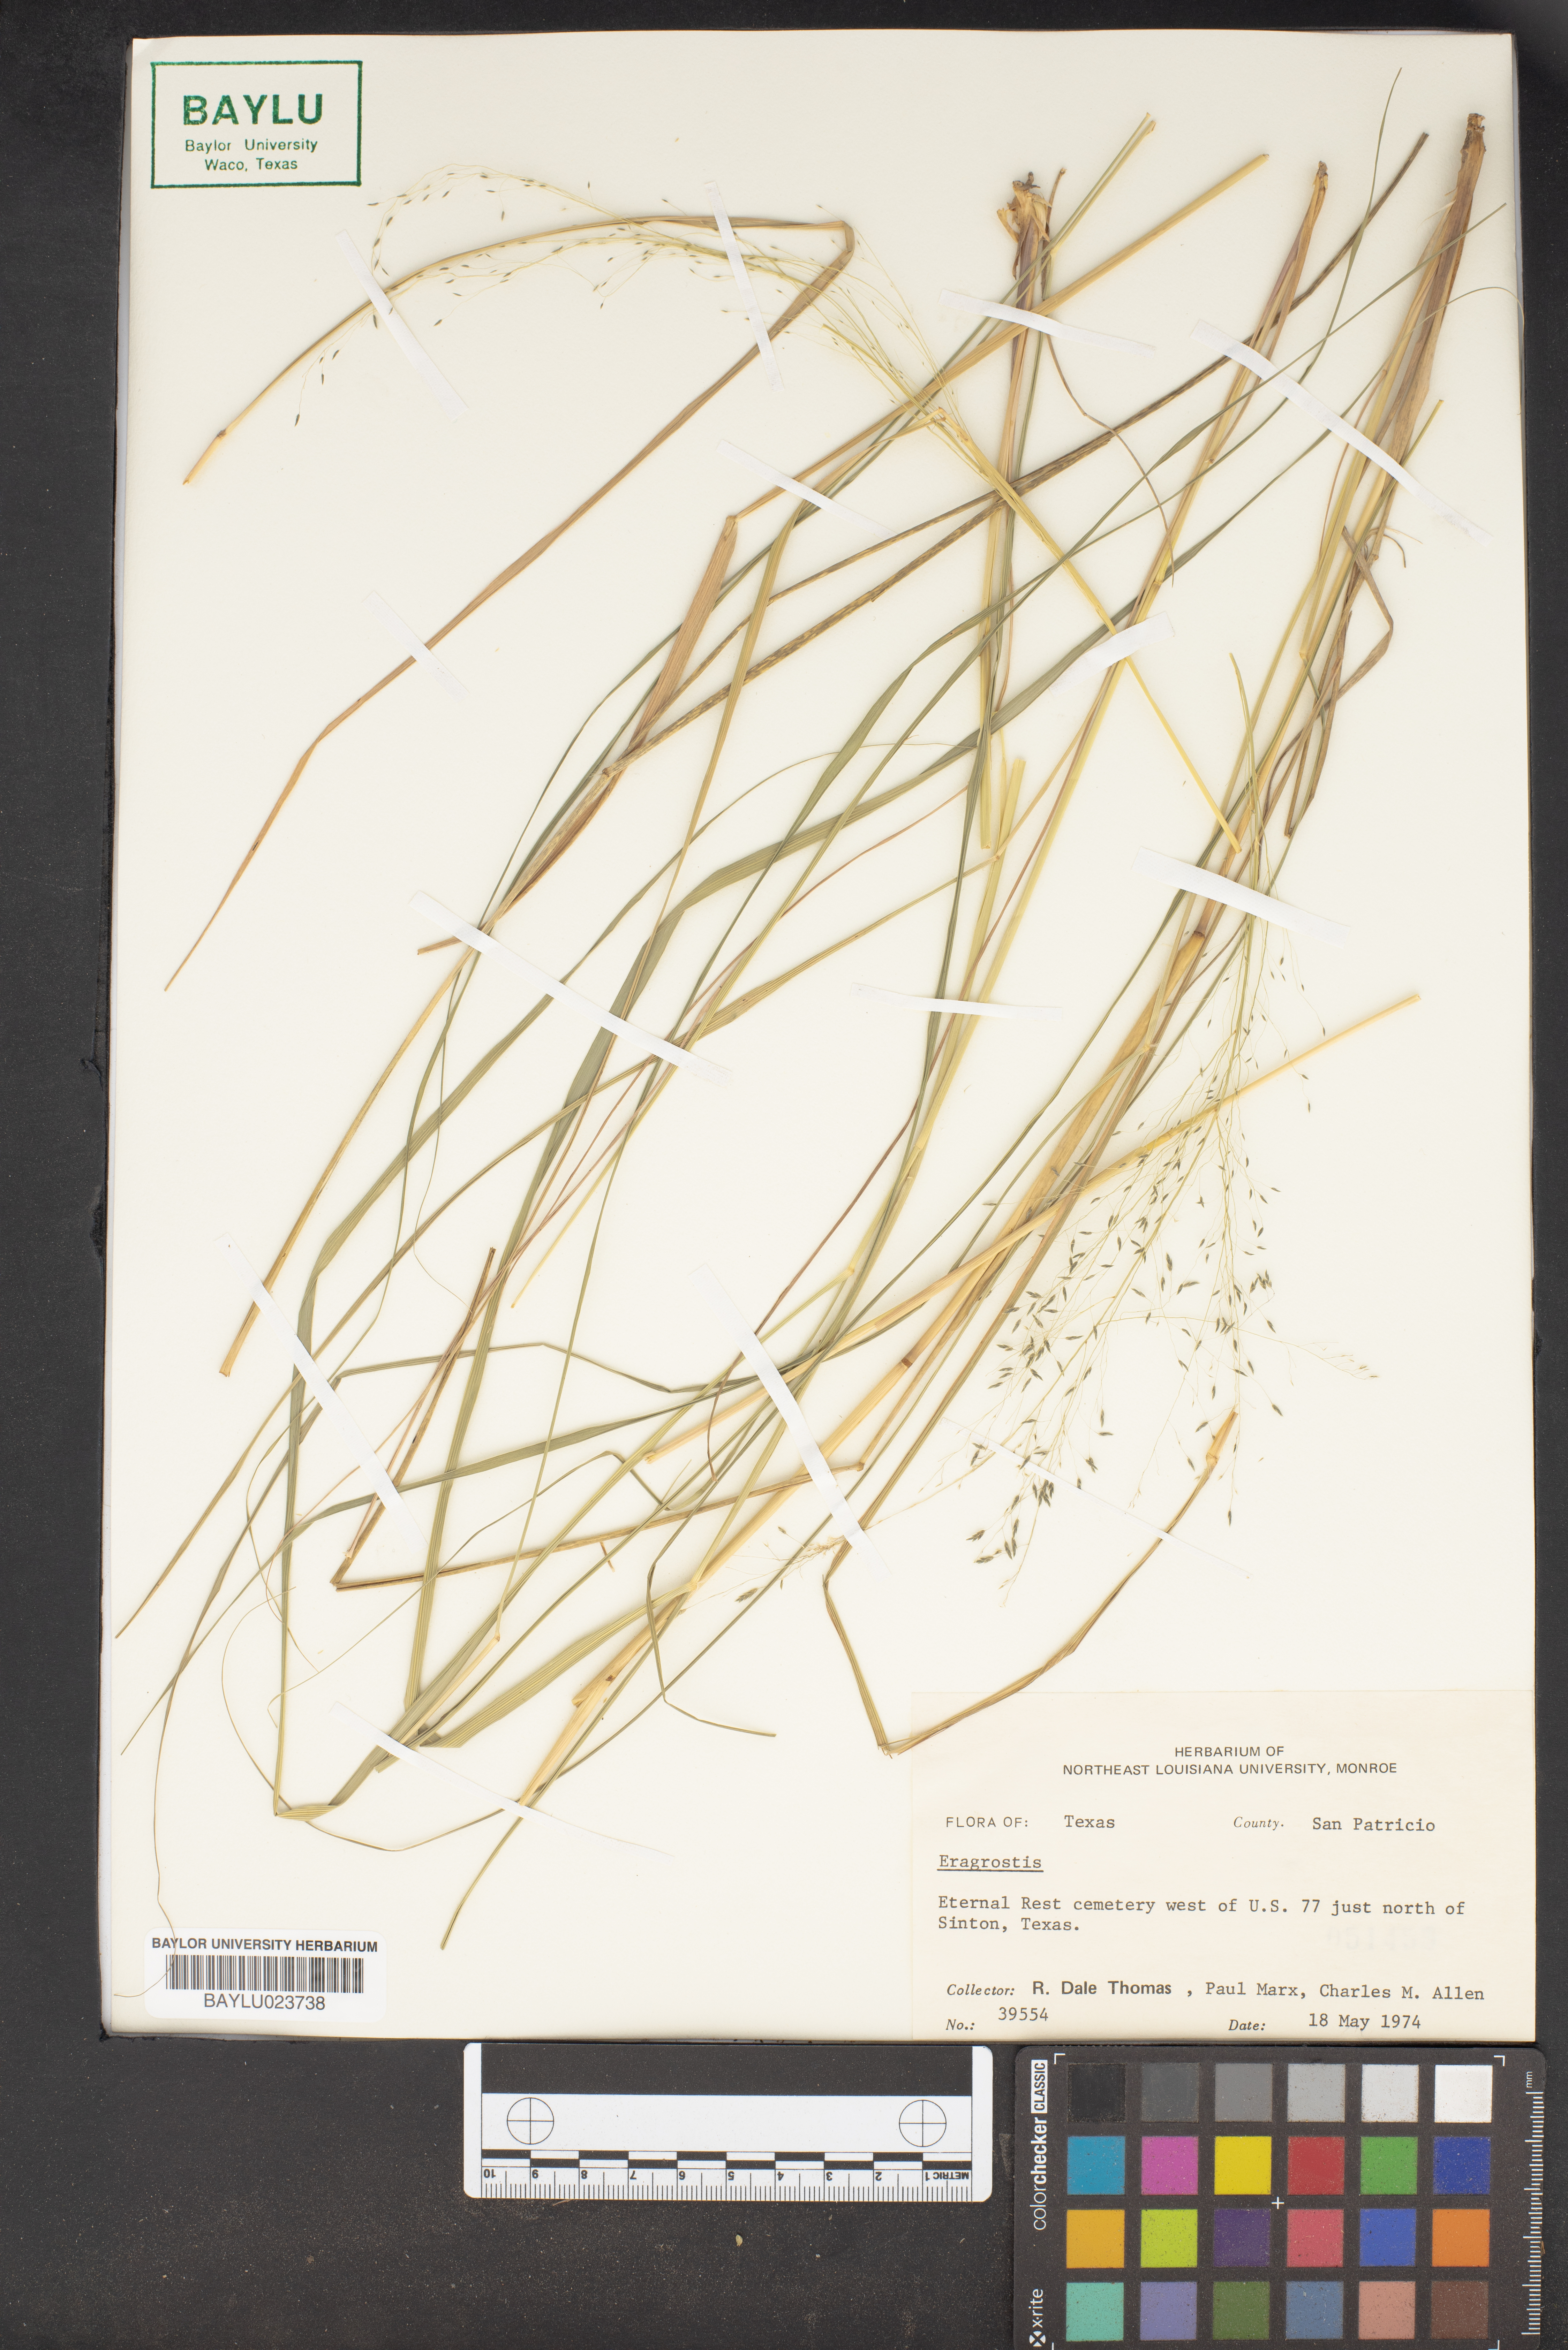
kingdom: Plantae
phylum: Tracheophyta
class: Liliopsida
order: Poales
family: Poaceae
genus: Eragrostis
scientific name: Eragrostis
